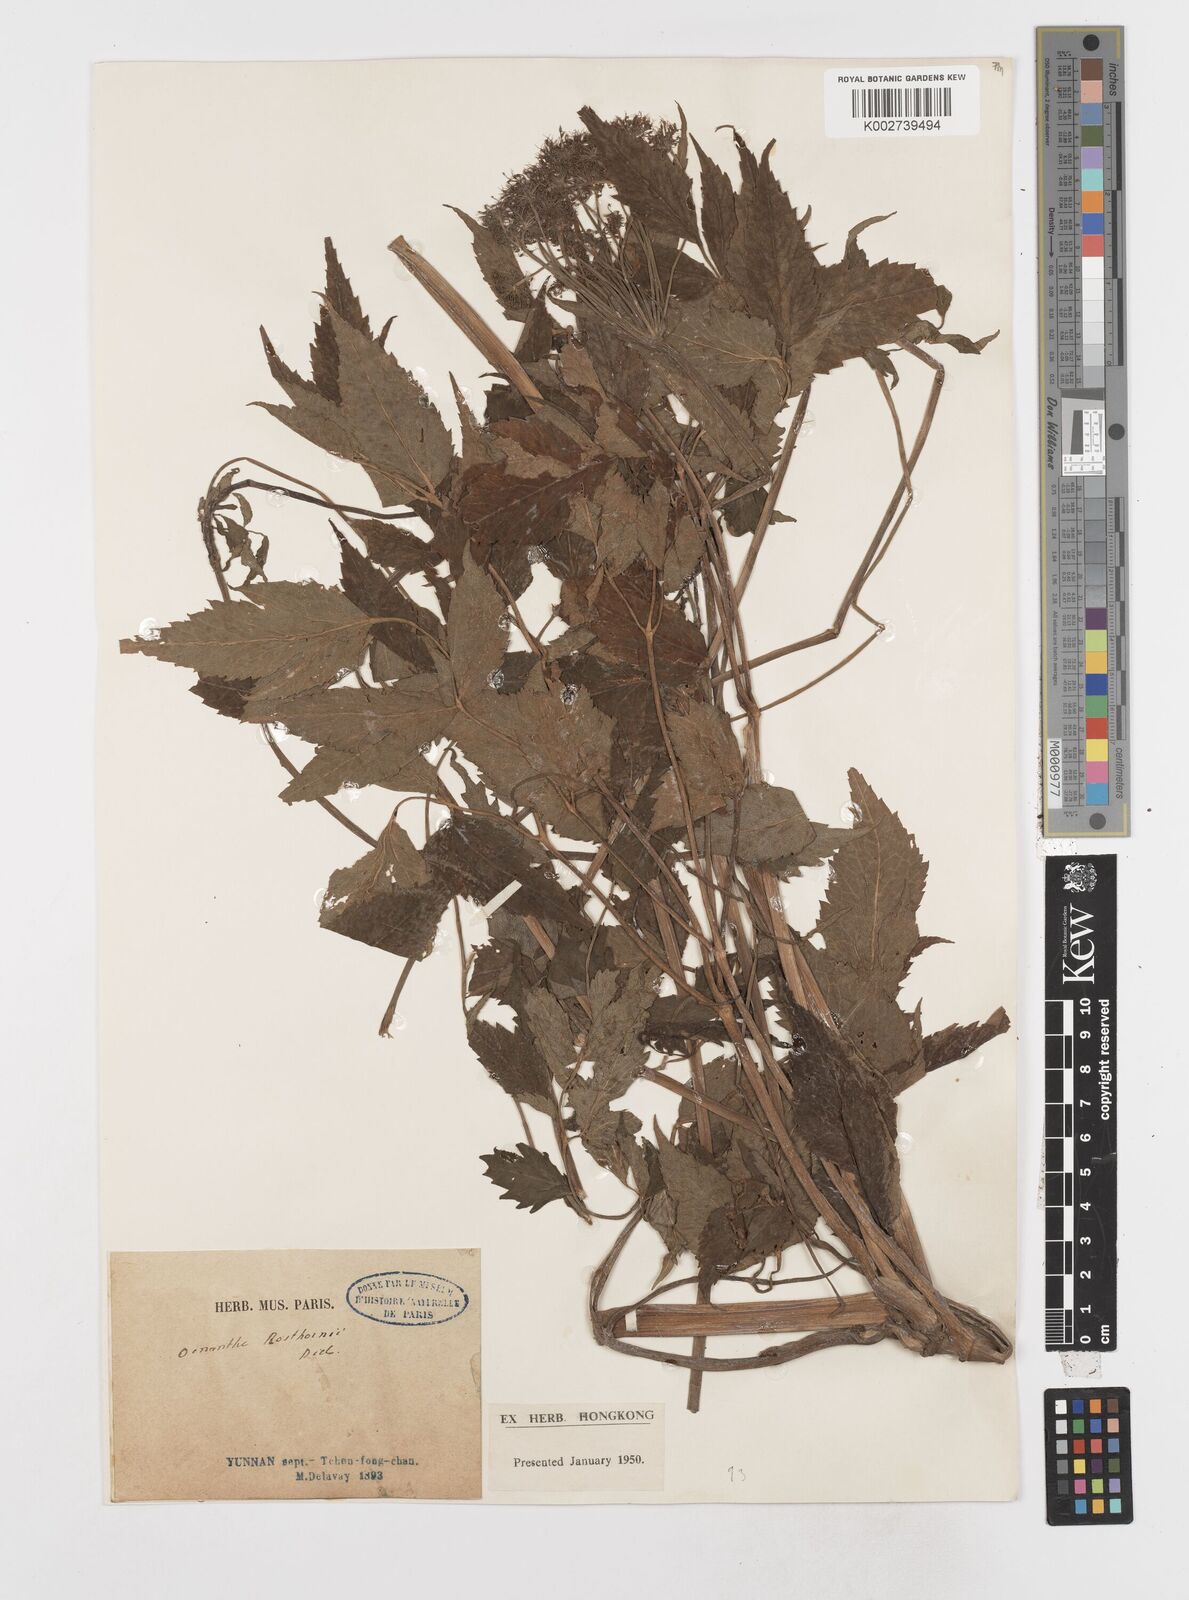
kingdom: Plantae
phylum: Tracheophyta
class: Magnoliopsida
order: Apiales
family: Apiaceae
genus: Oenanthe
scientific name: Oenanthe javanica
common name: Java water-dropwort
